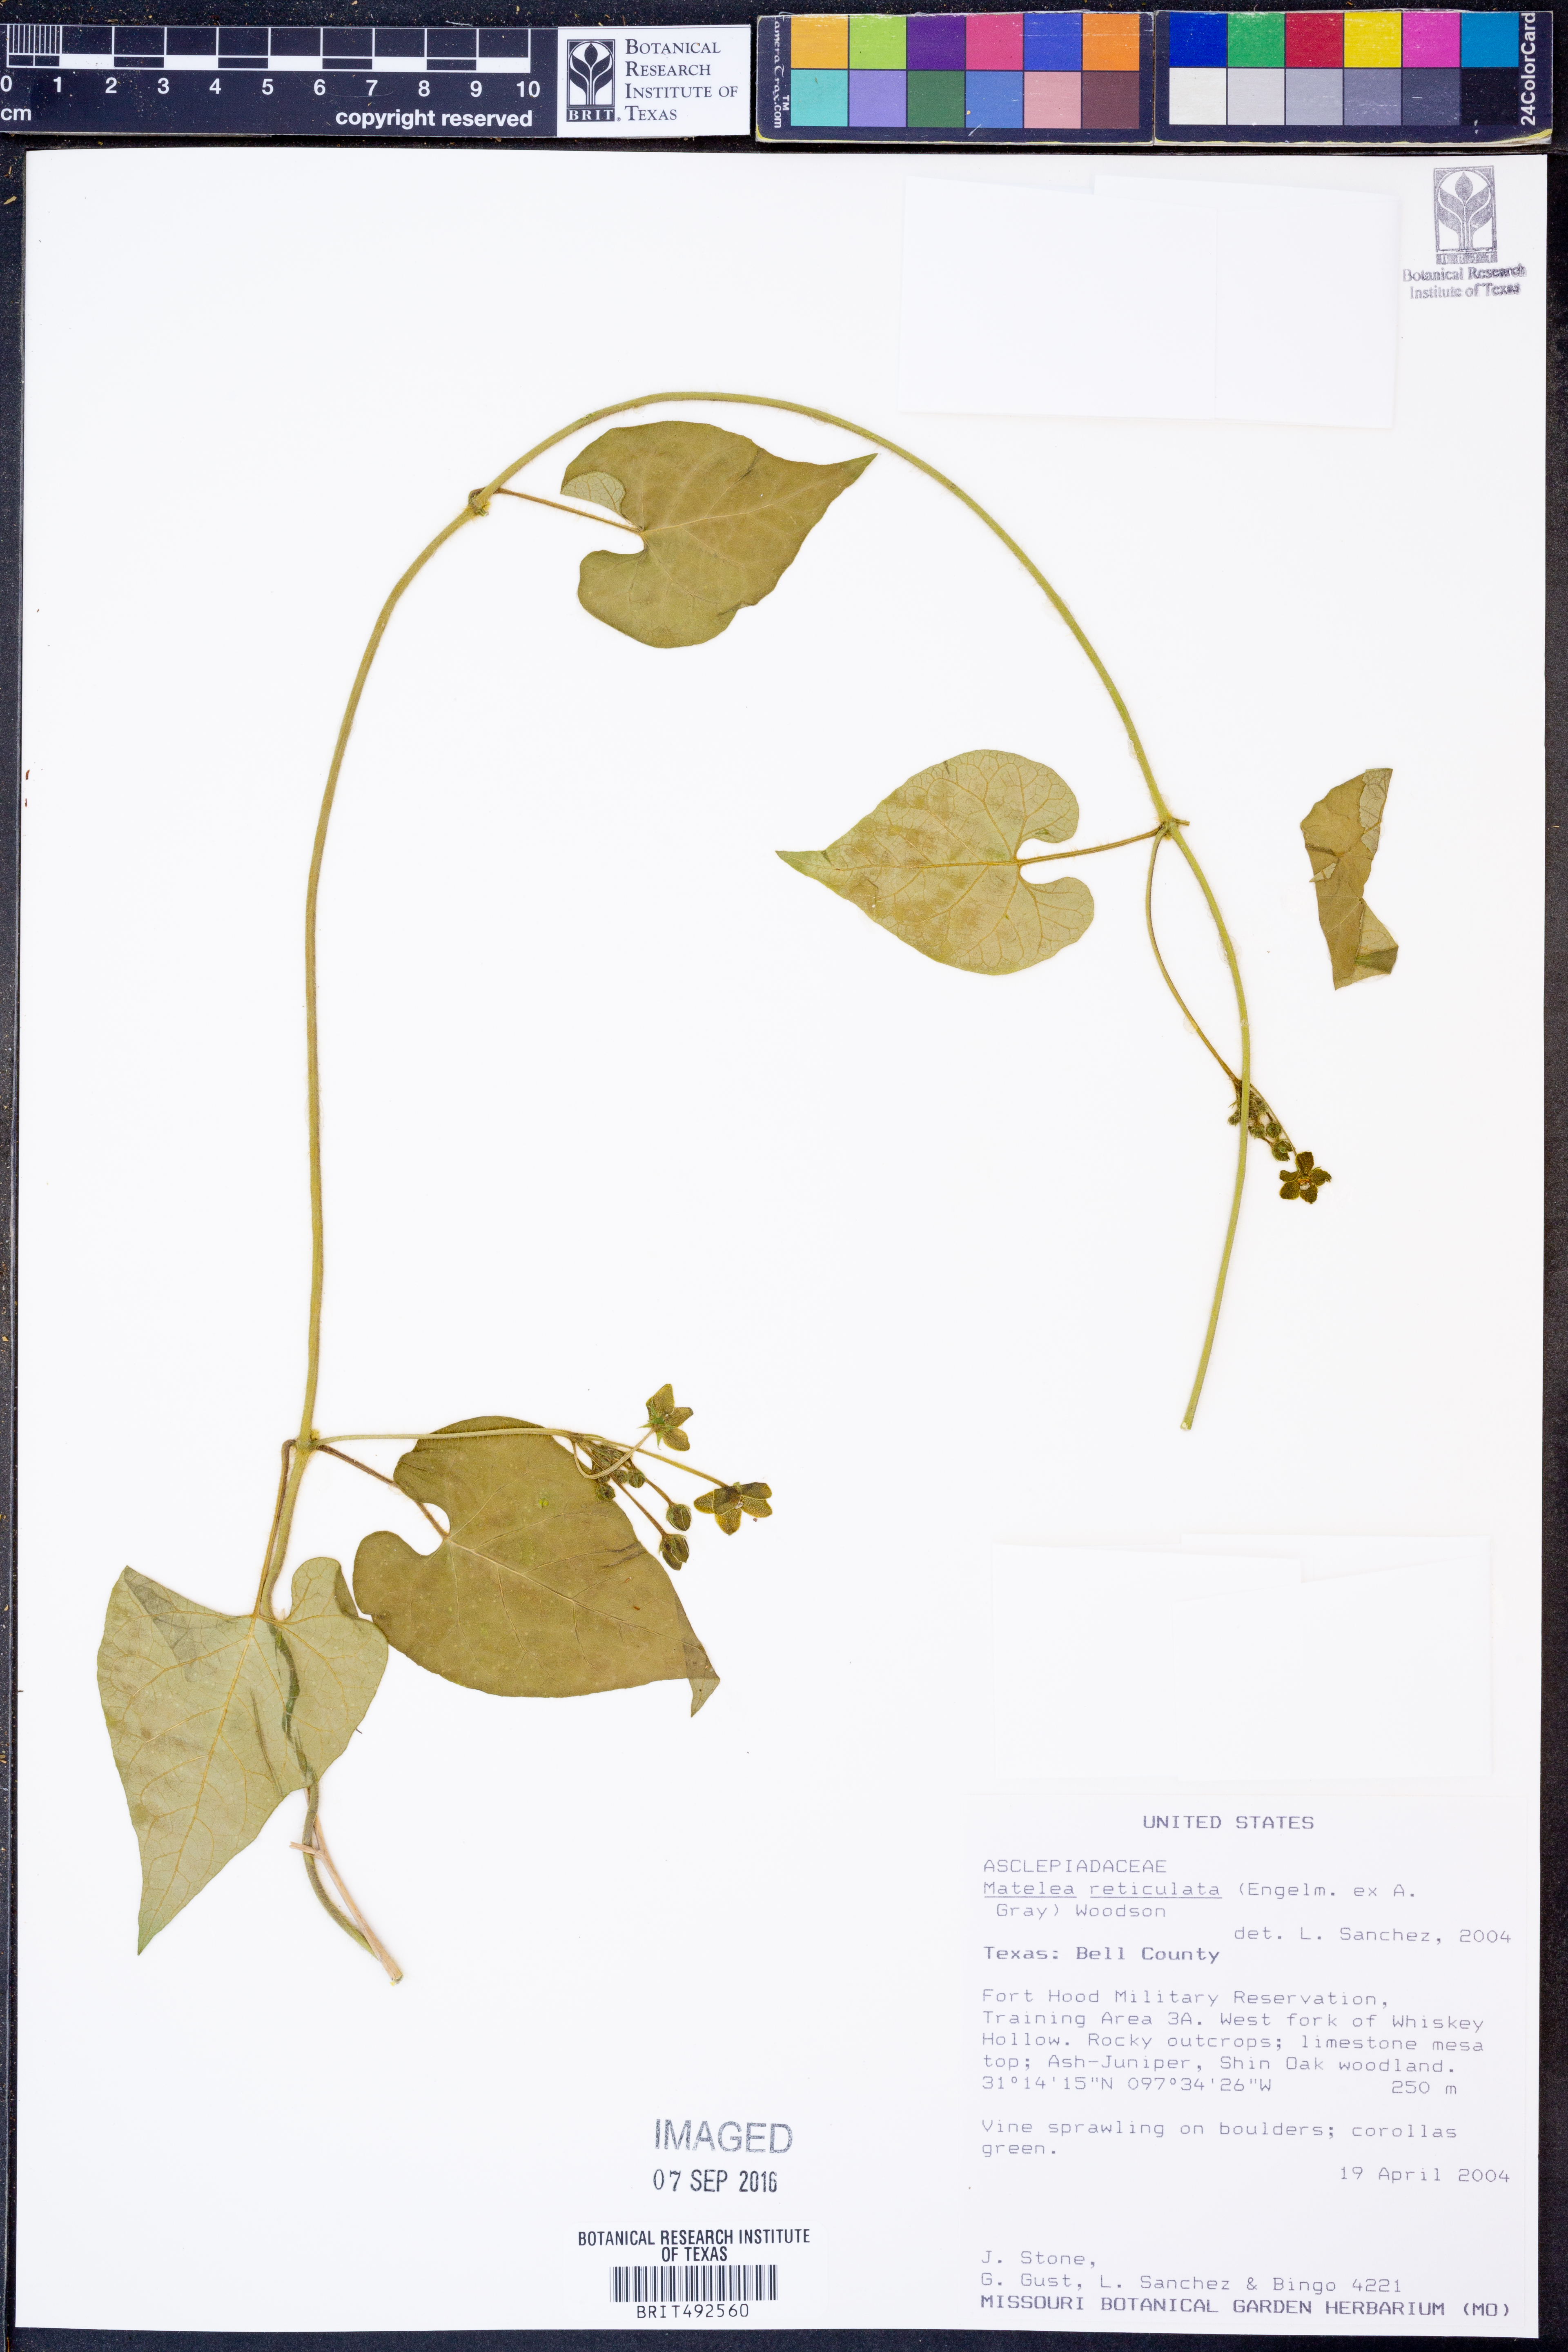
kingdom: Plantae
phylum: Tracheophyta
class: Magnoliopsida
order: Gentianales
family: Apocynaceae
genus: Dictyanthus
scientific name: Dictyanthus reticulatus
